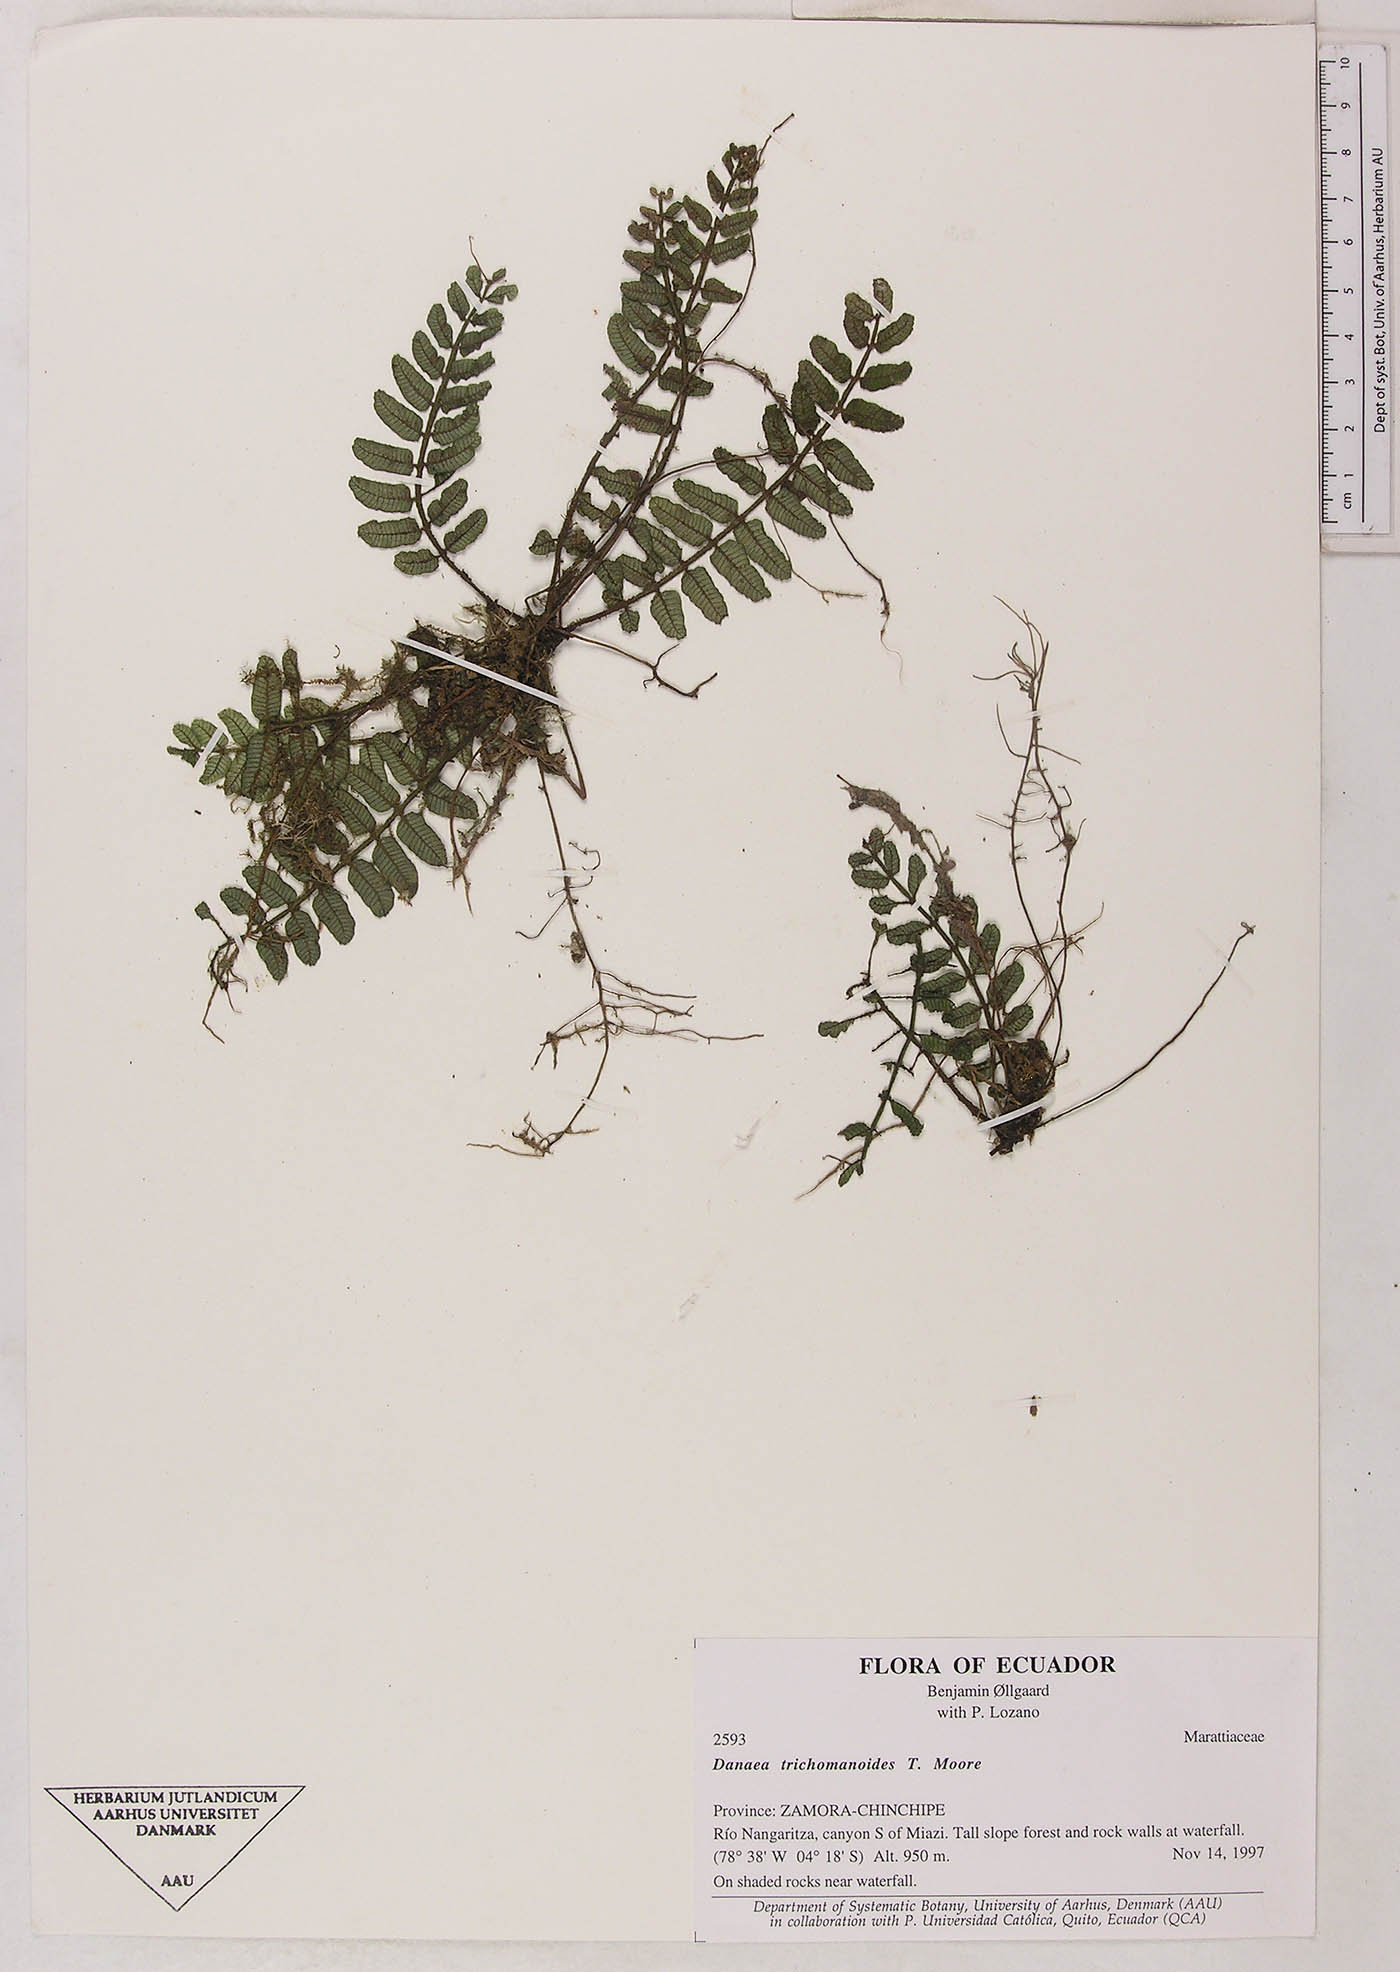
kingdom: Plantae
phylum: Tracheophyta
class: Polypodiopsida
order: Marattiales
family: Marattiaceae
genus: Danaea
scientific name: Danaea trichomanoides
